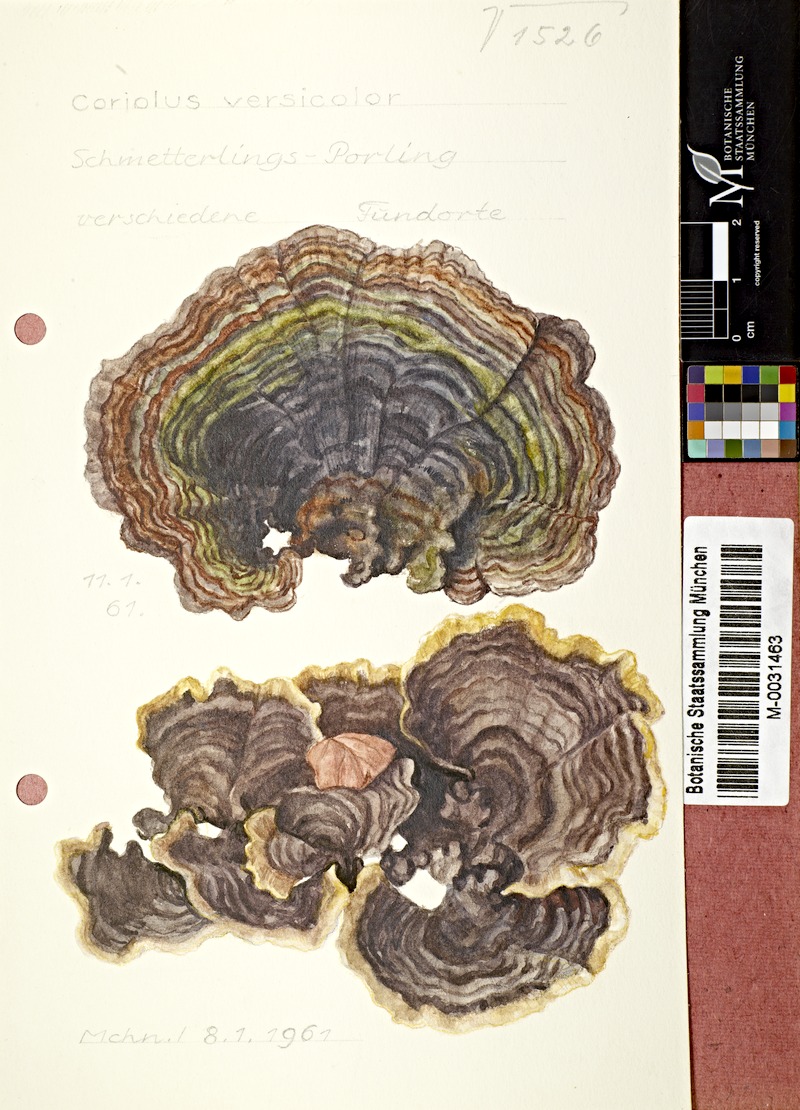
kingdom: Fungi
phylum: Basidiomycota
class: Agaricomycetes
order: Polyporales
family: Polyporaceae
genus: Trametes
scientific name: Trametes versicolor
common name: Turkeytail
